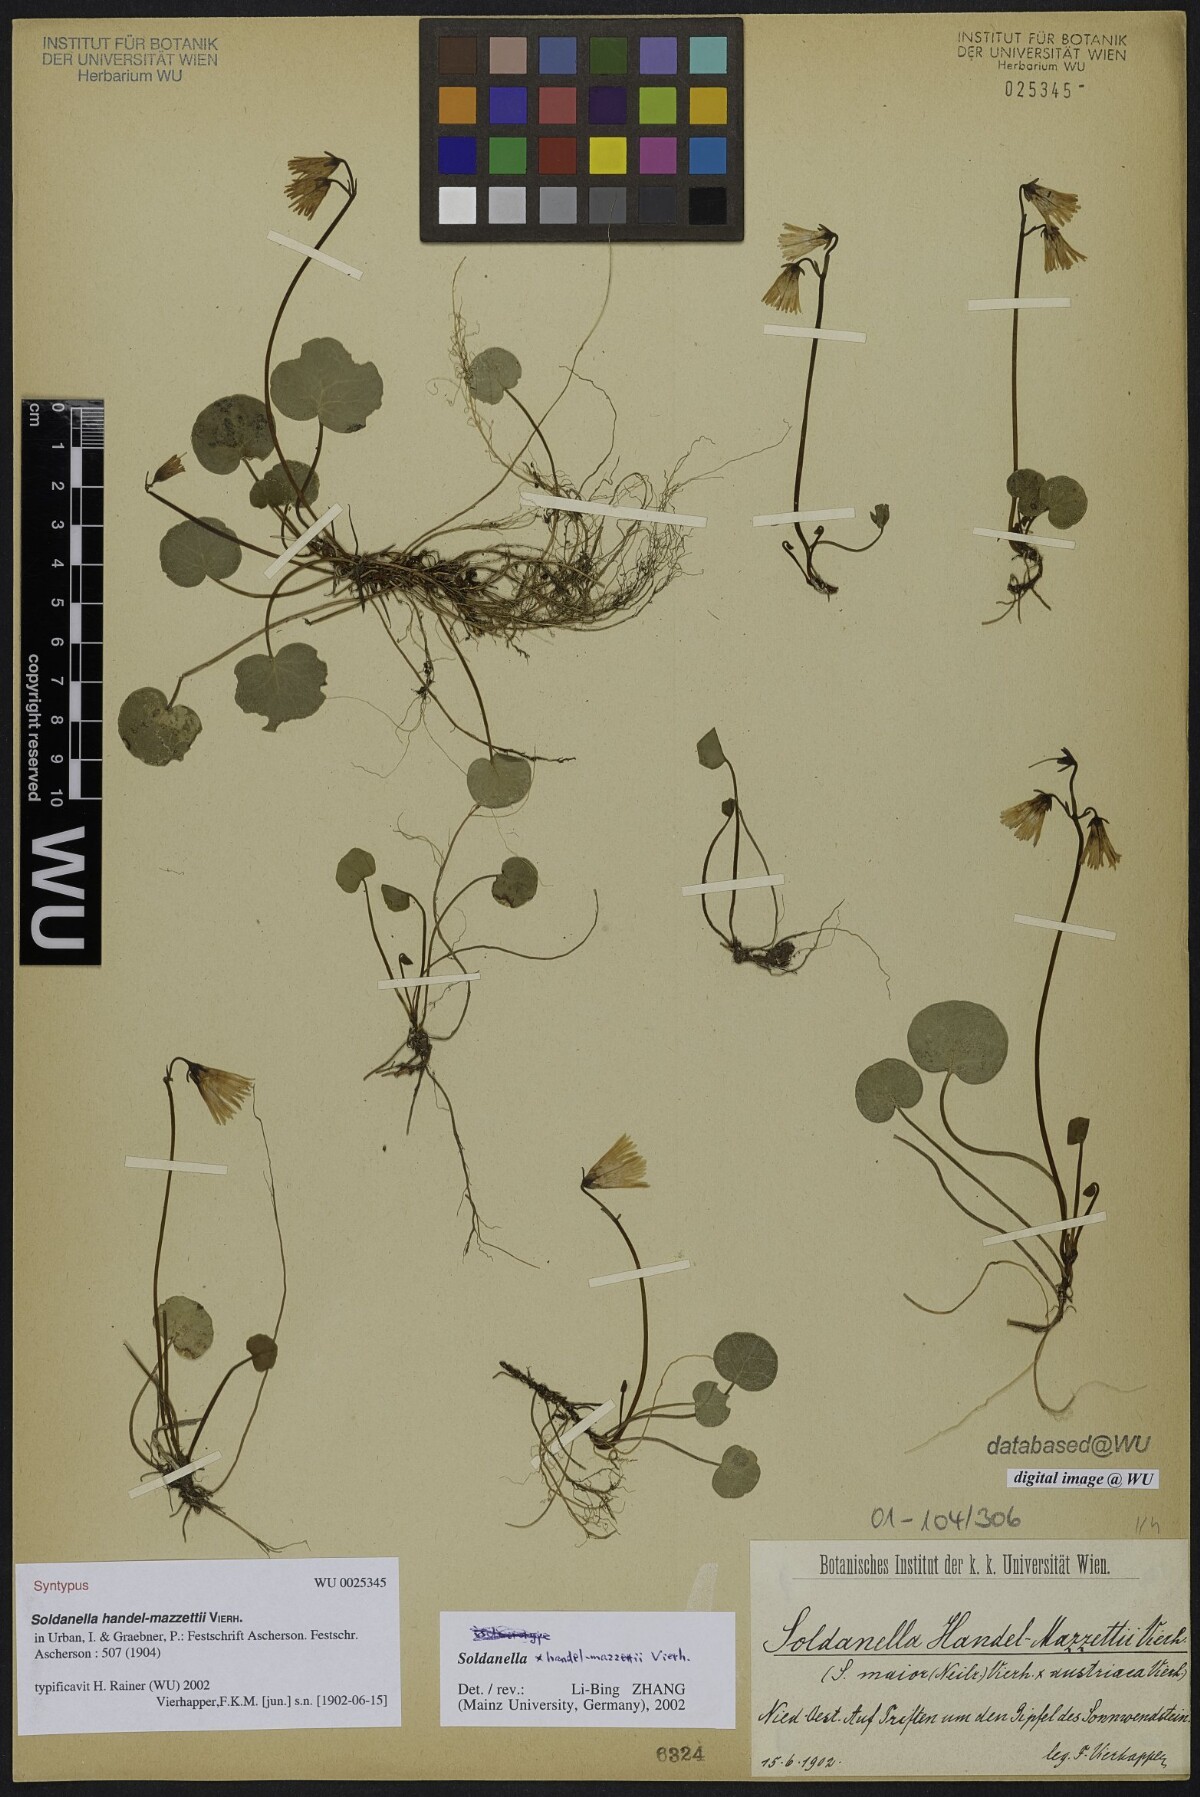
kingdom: Plantae
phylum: Tracheophyta
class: Magnoliopsida
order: Ericales
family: Primulaceae
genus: Soldanella
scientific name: Soldanella handel-mazzettii
